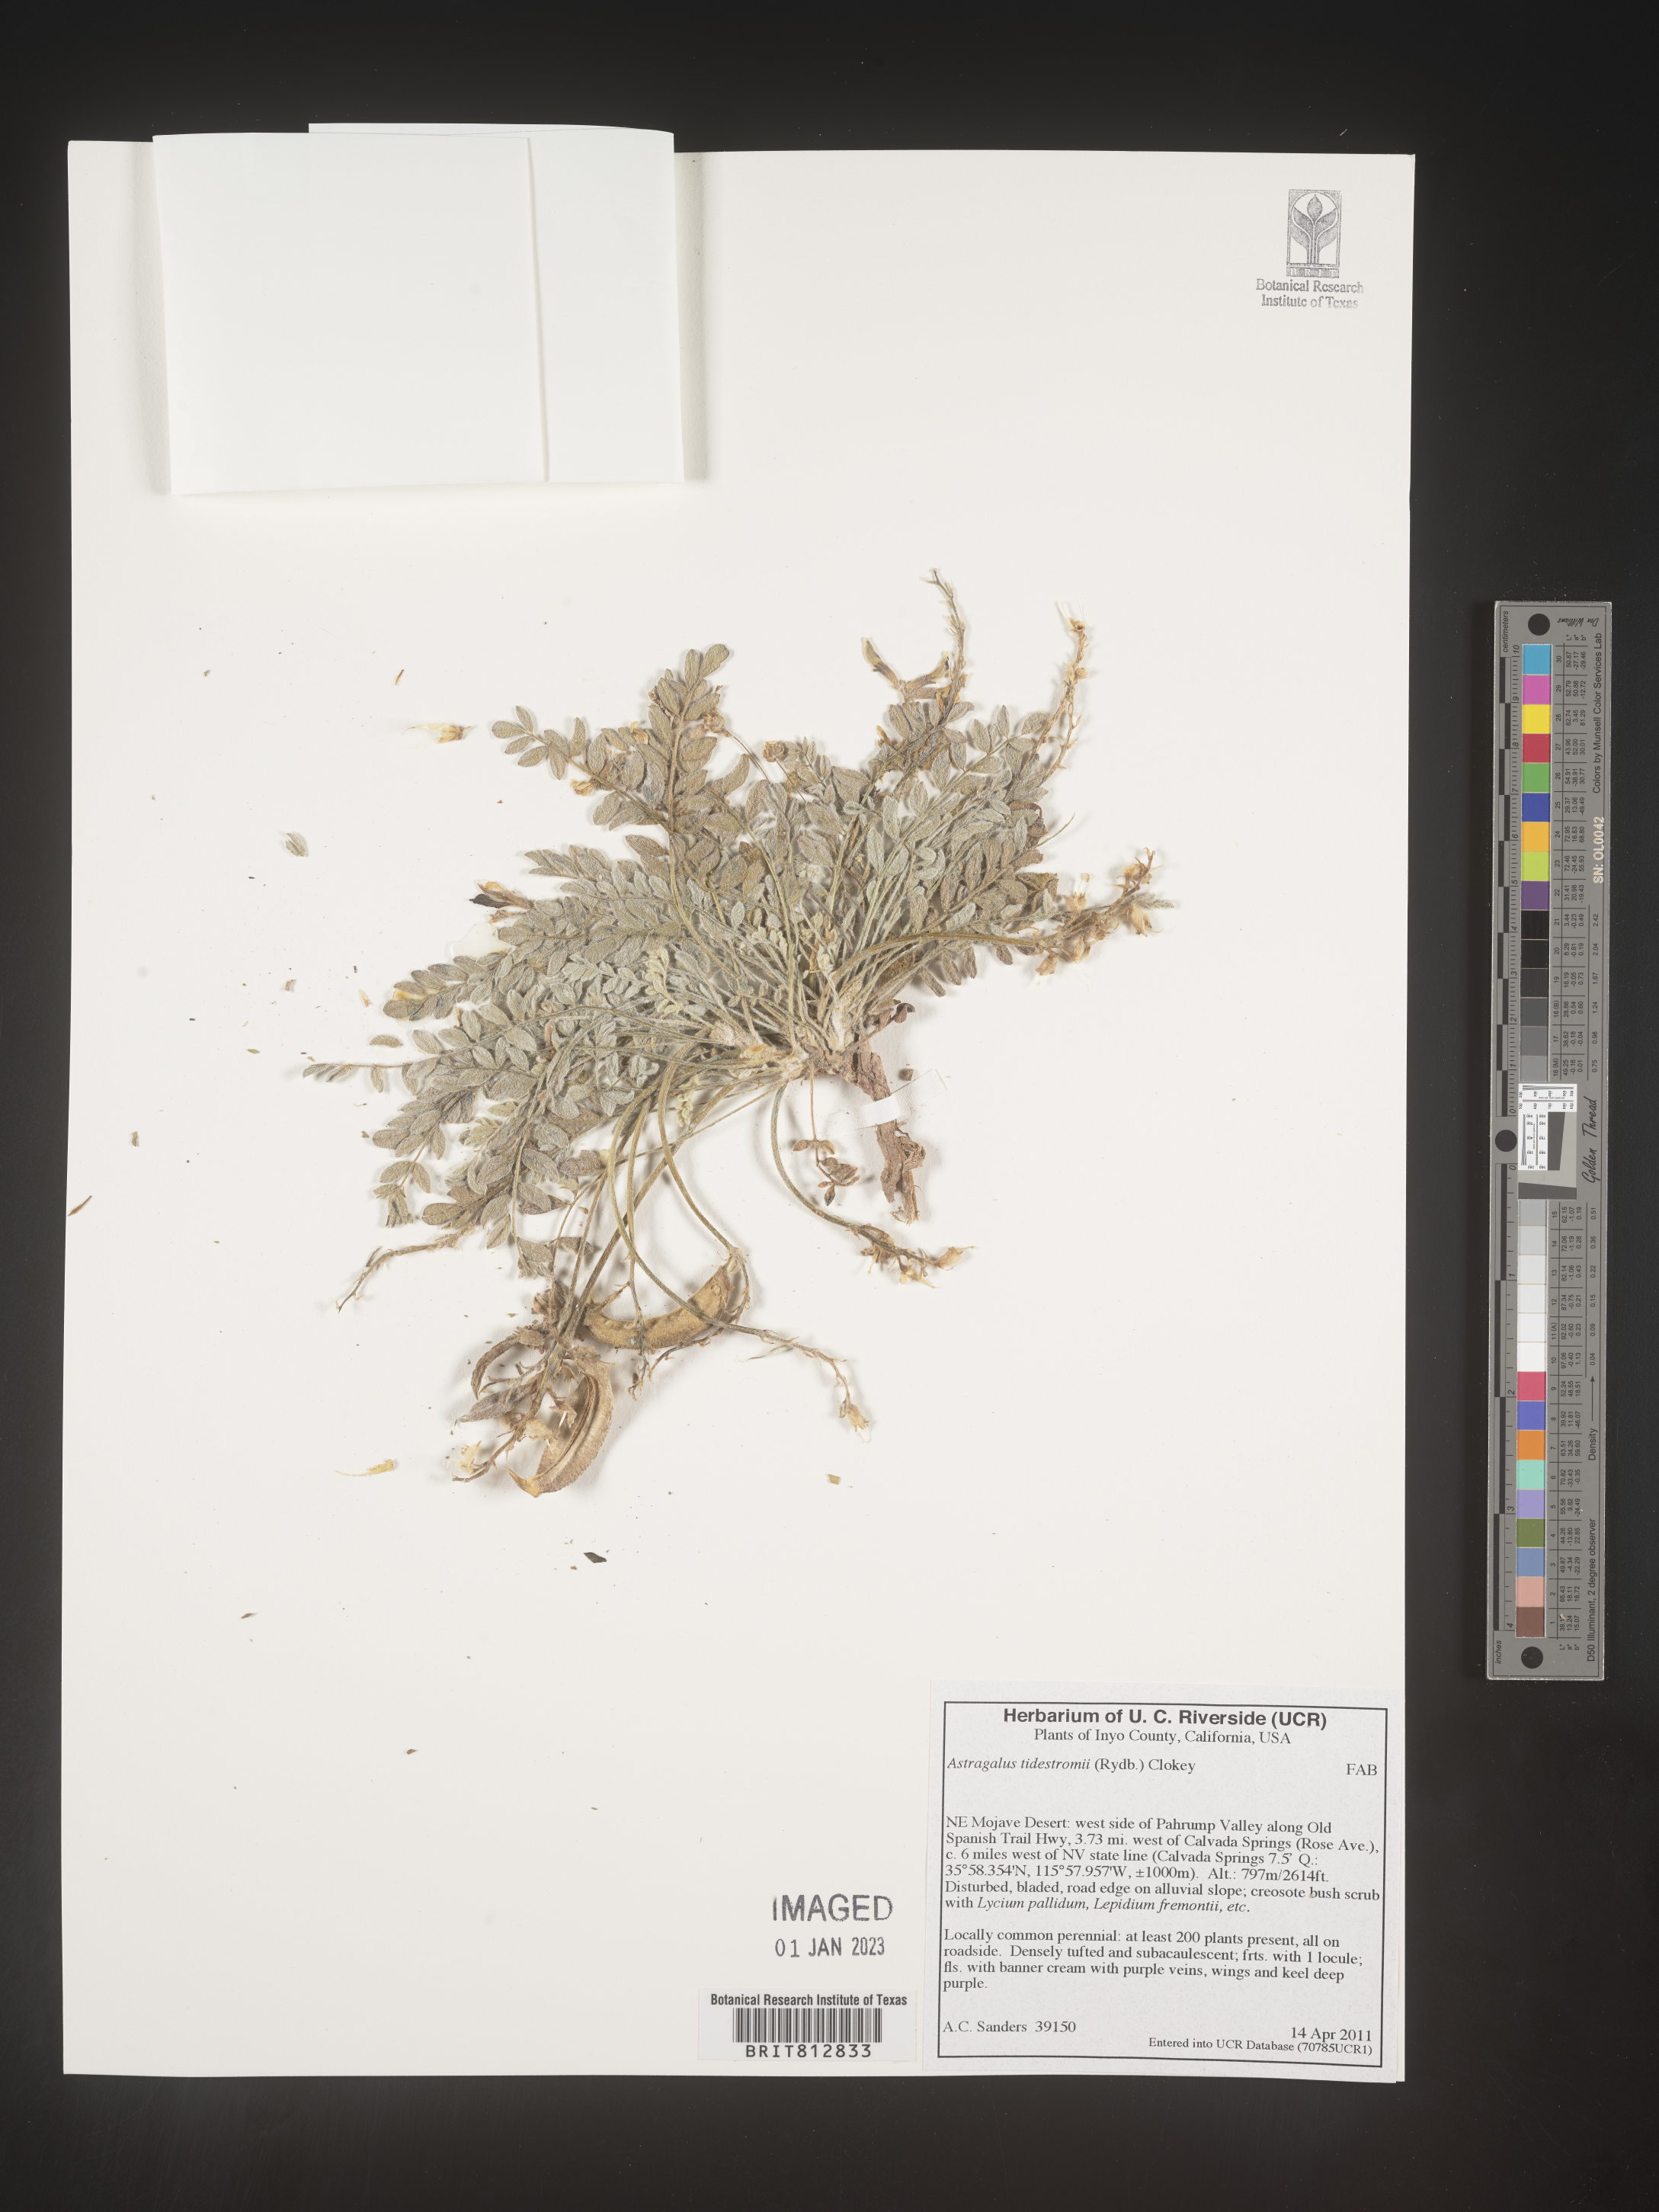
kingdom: Plantae
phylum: Tracheophyta
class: Magnoliopsida
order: Fabales
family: Fabaceae
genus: Astragalus
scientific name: Astragalus
